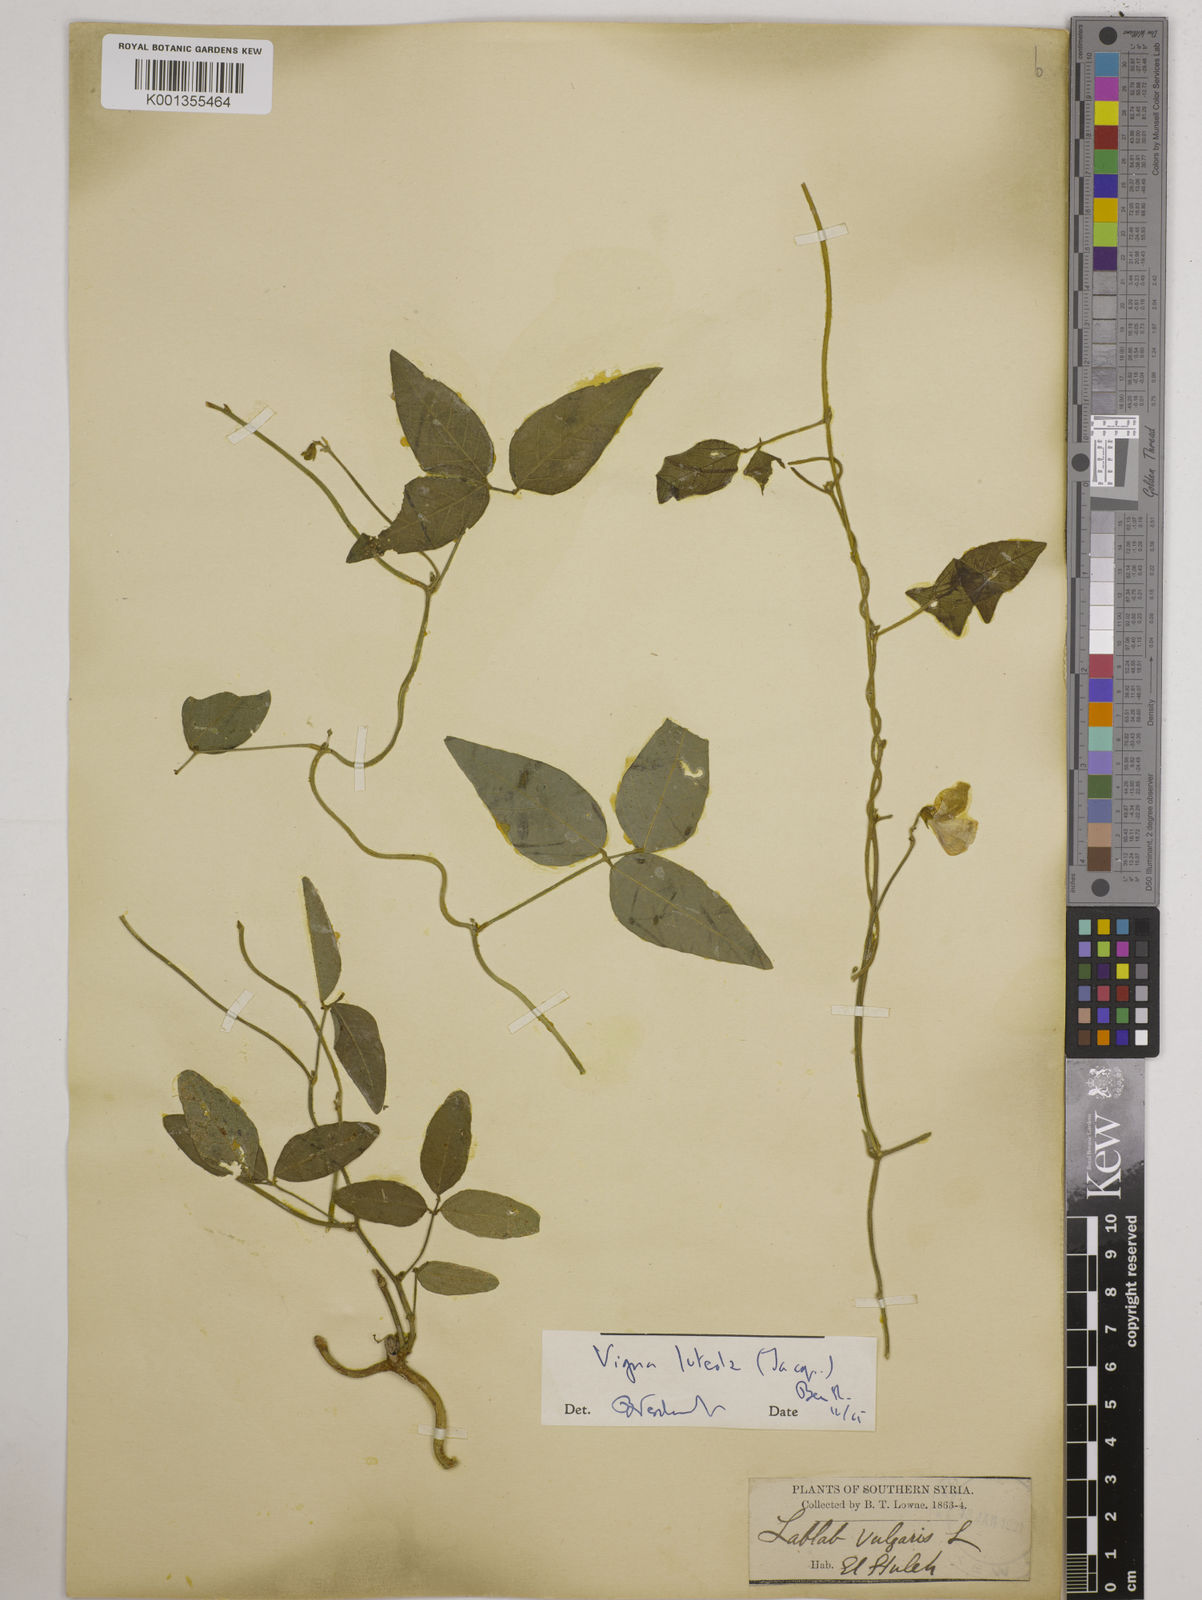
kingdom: Plantae
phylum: Tracheophyta
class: Magnoliopsida
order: Fabales
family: Fabaceae
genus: Vigna
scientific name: Vigna luteola
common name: Hairypod cowpea
